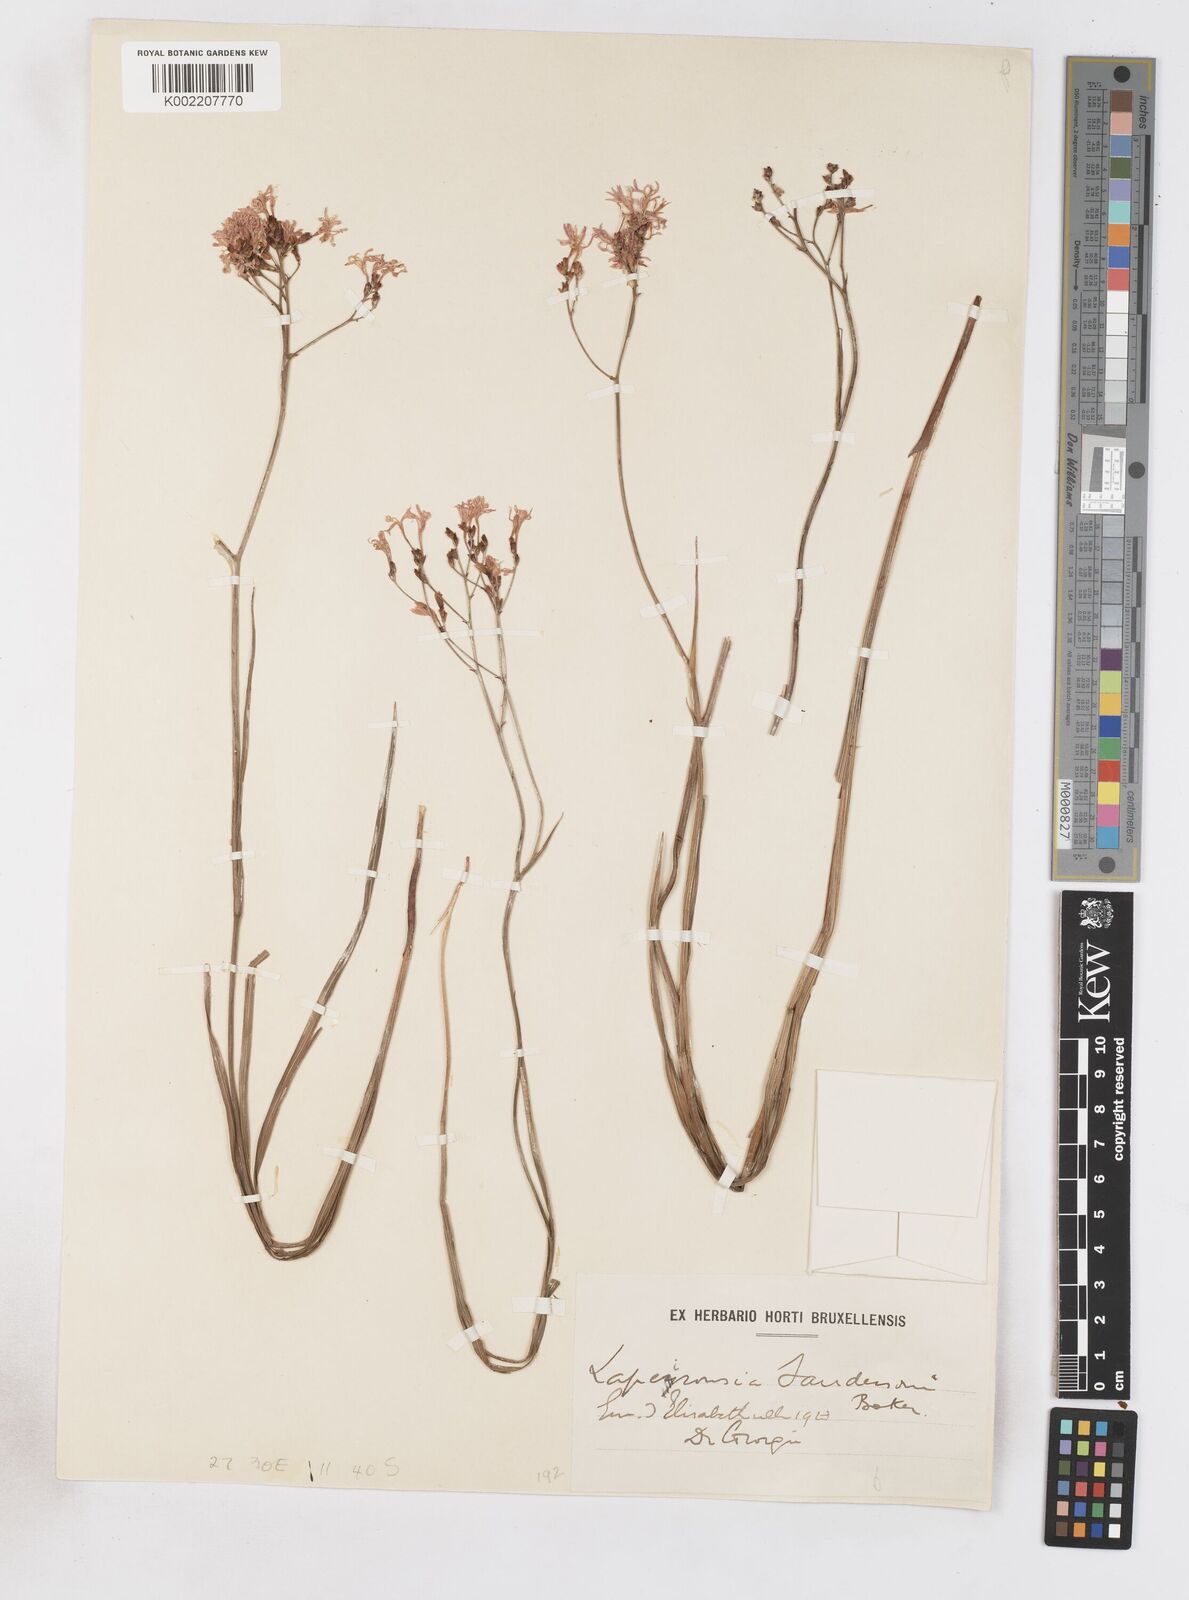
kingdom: Plantae
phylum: Tracheophyta
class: Liliopsida
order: Asparagales
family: Iridaceae
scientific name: Iridaceae
